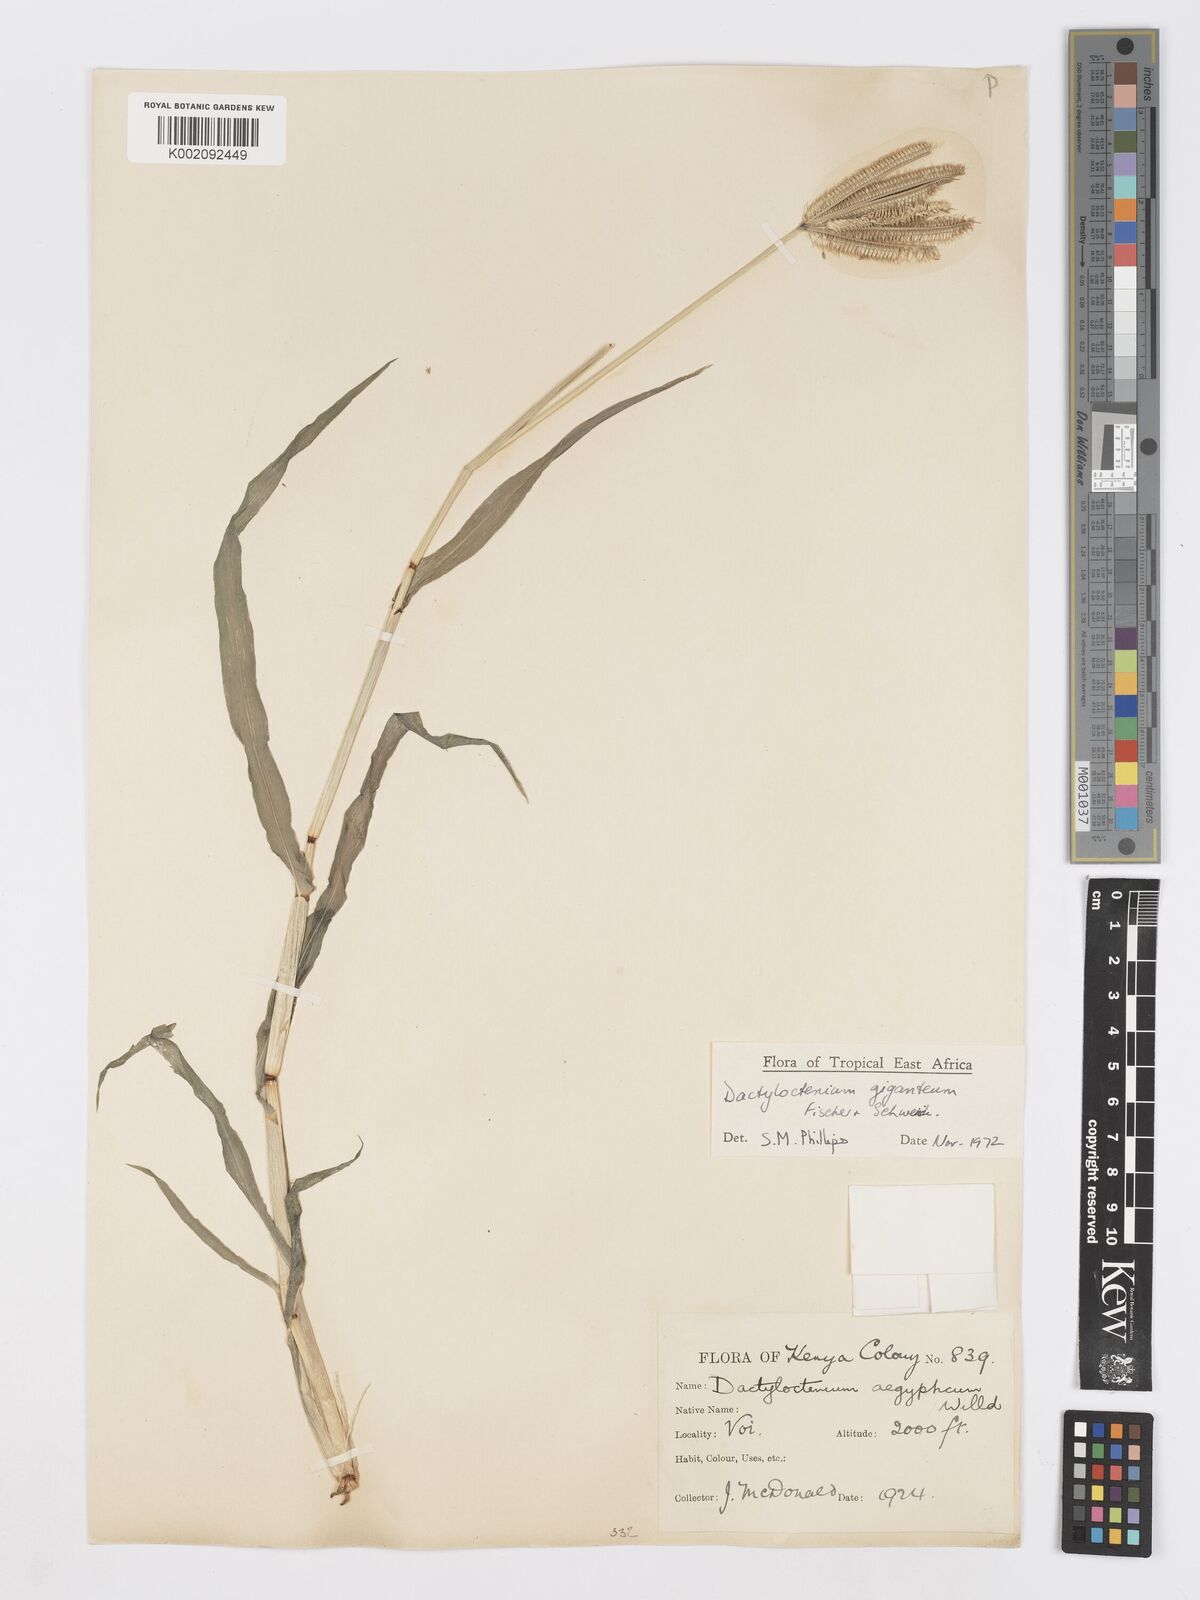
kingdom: Plantae
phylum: Tracheophyta
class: Liliopsida
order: Poales
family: Poaceae
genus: Dactyloctenium
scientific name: Dactyloctenium giganteum
